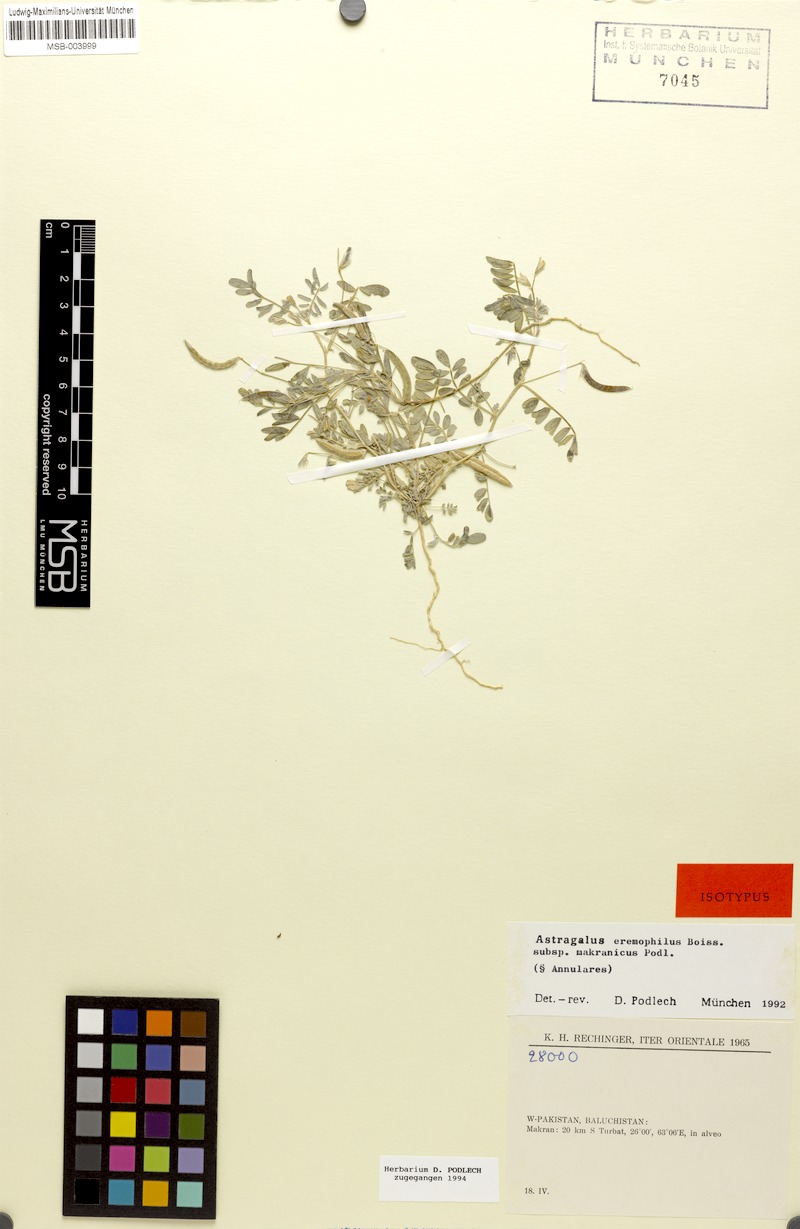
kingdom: Plantae
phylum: Tracheophyta
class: Magnoliopsida
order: Fabales
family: Fabaceae
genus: Astragalus
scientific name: Astragalus eremophilus
